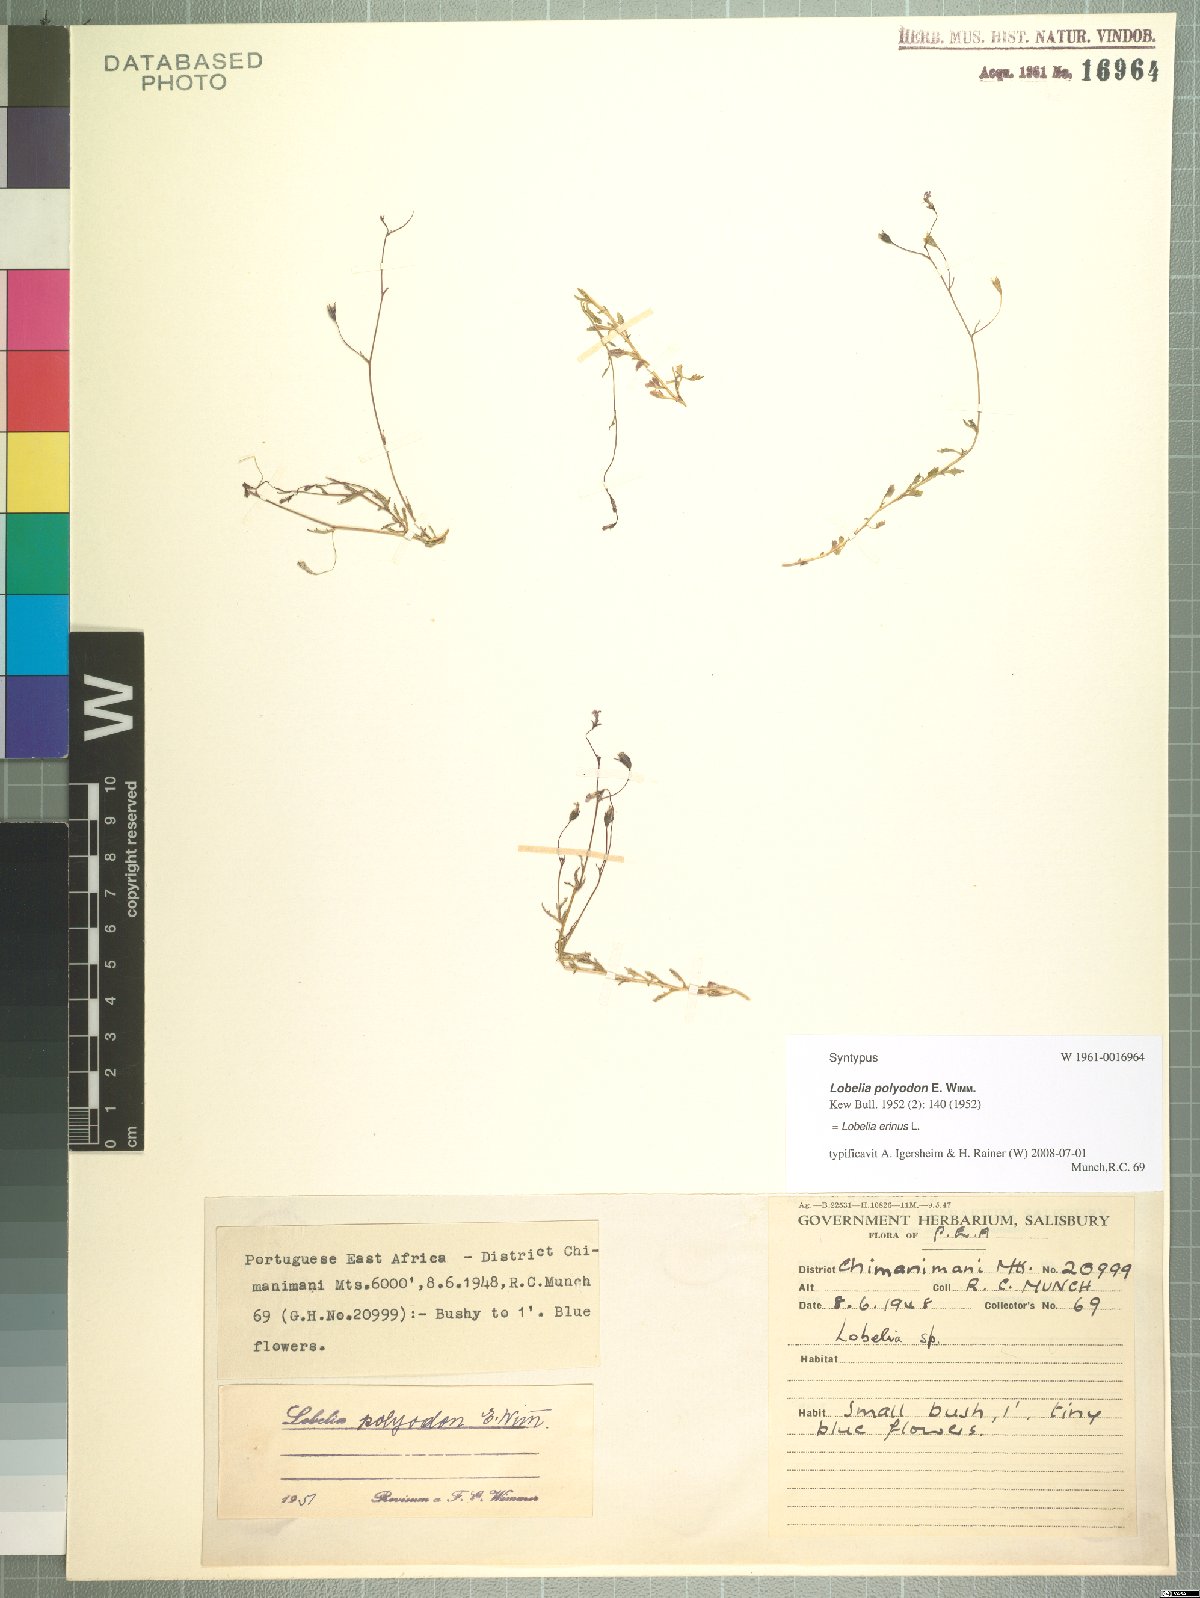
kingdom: Plantae
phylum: Tracheophyta
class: Magnoliopsida
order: Asterales
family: Campanulaceae
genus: Lobelia
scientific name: Lobelia erinus
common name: Edging lobelia
